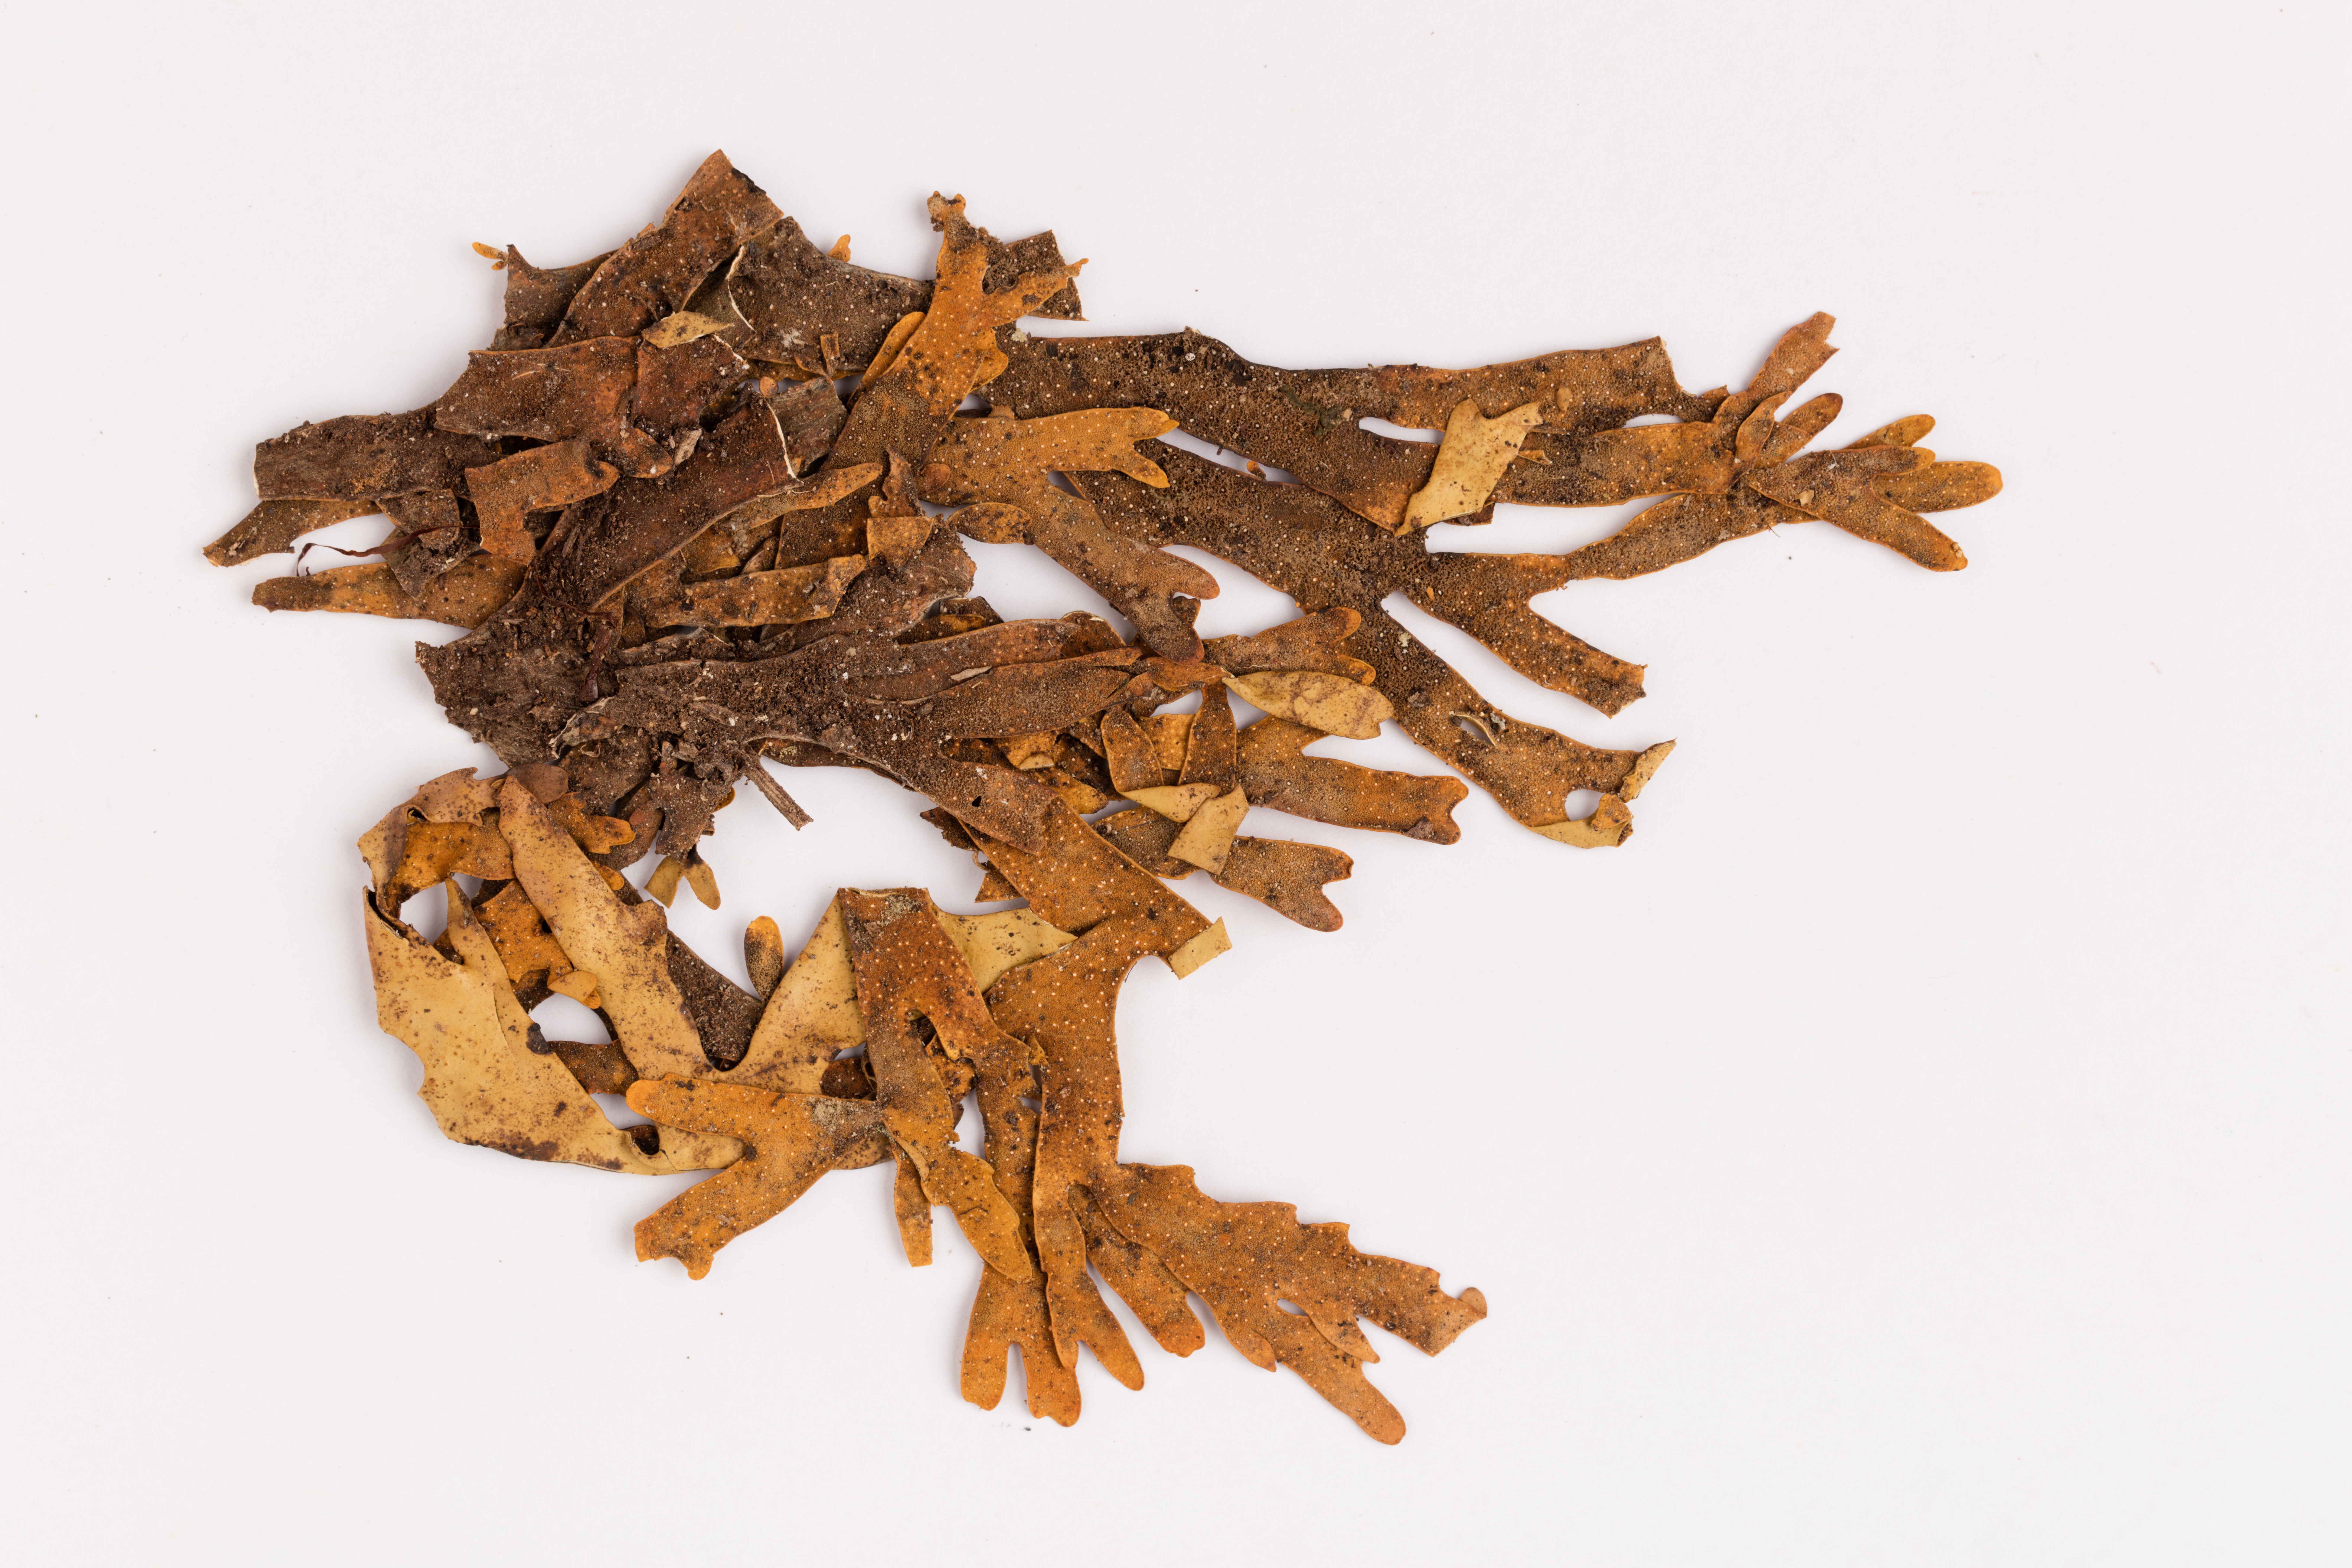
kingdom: Fungi
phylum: Ascomycota
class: Lecanoromycetes
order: Peltigerales
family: Lobariaceae
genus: Pseudocyphellaria
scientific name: Pseudocyphellaria cinnamomea
